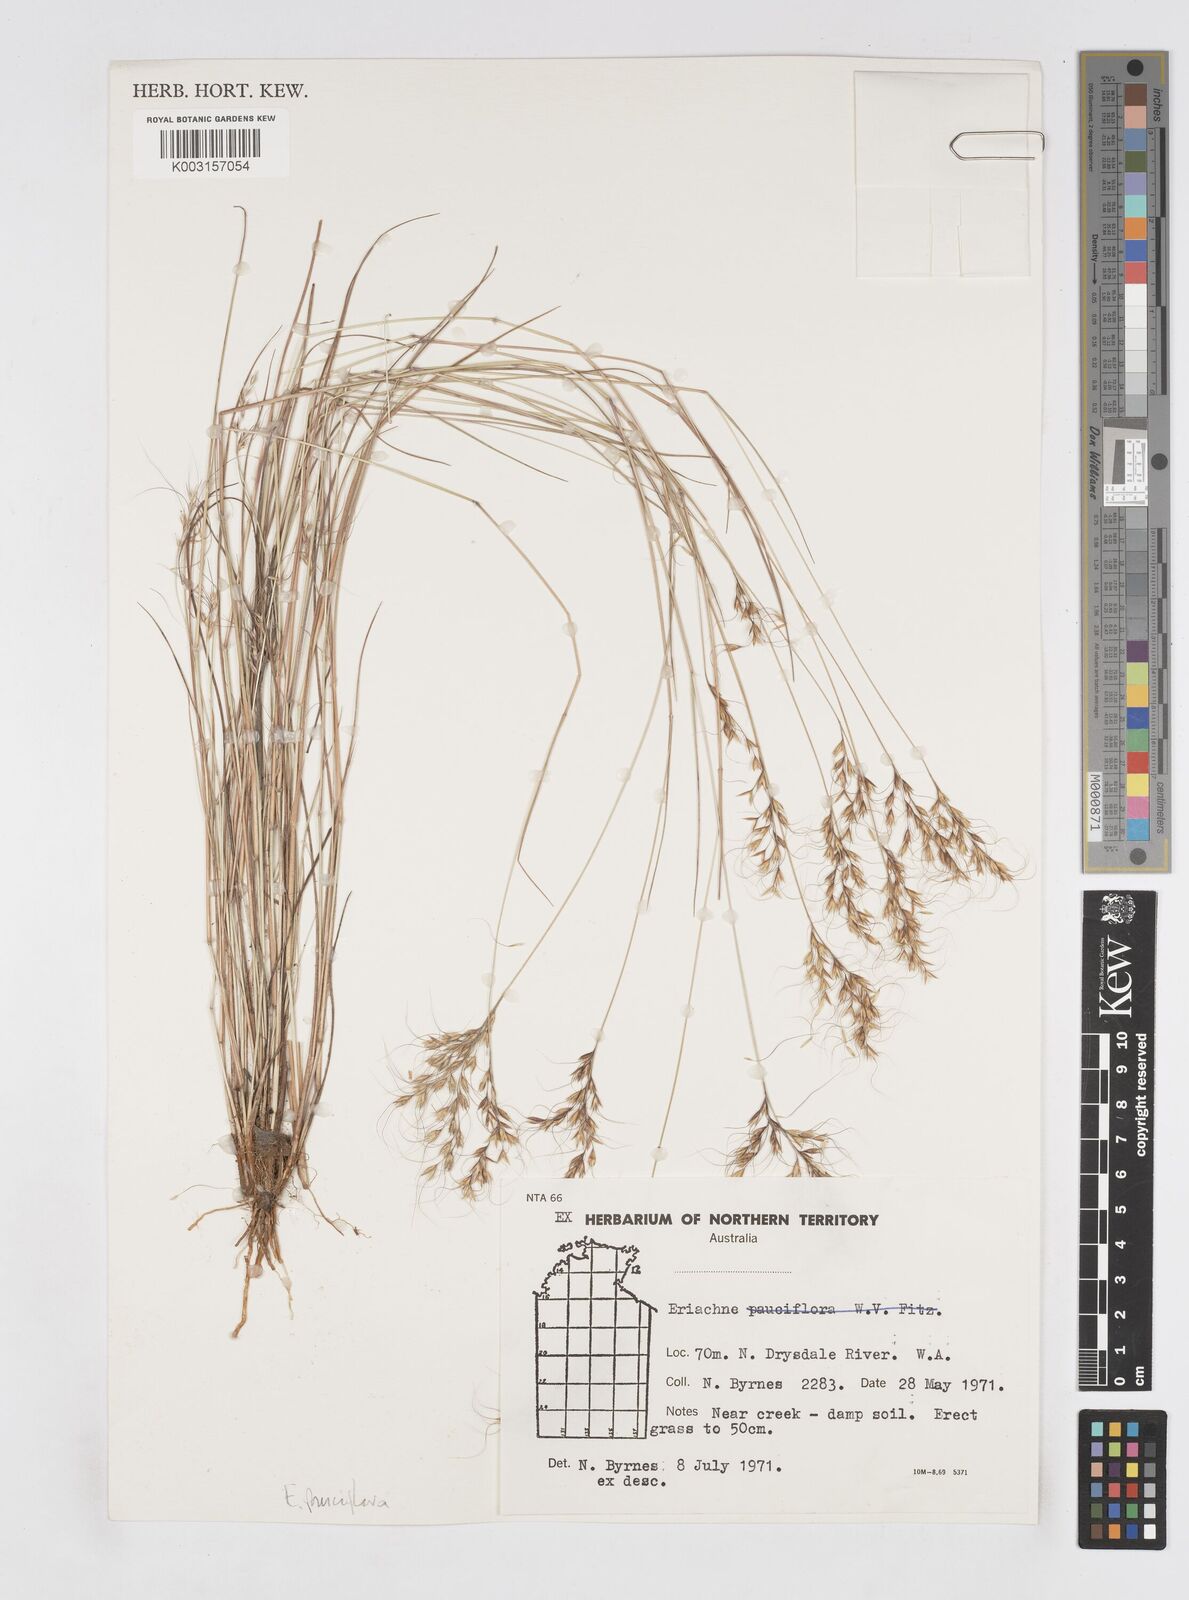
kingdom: Plantae
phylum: Tracheophyta
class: Liliopsida
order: Poales
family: Poaceae
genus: Eriachne
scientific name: Eriachne pauciflora
